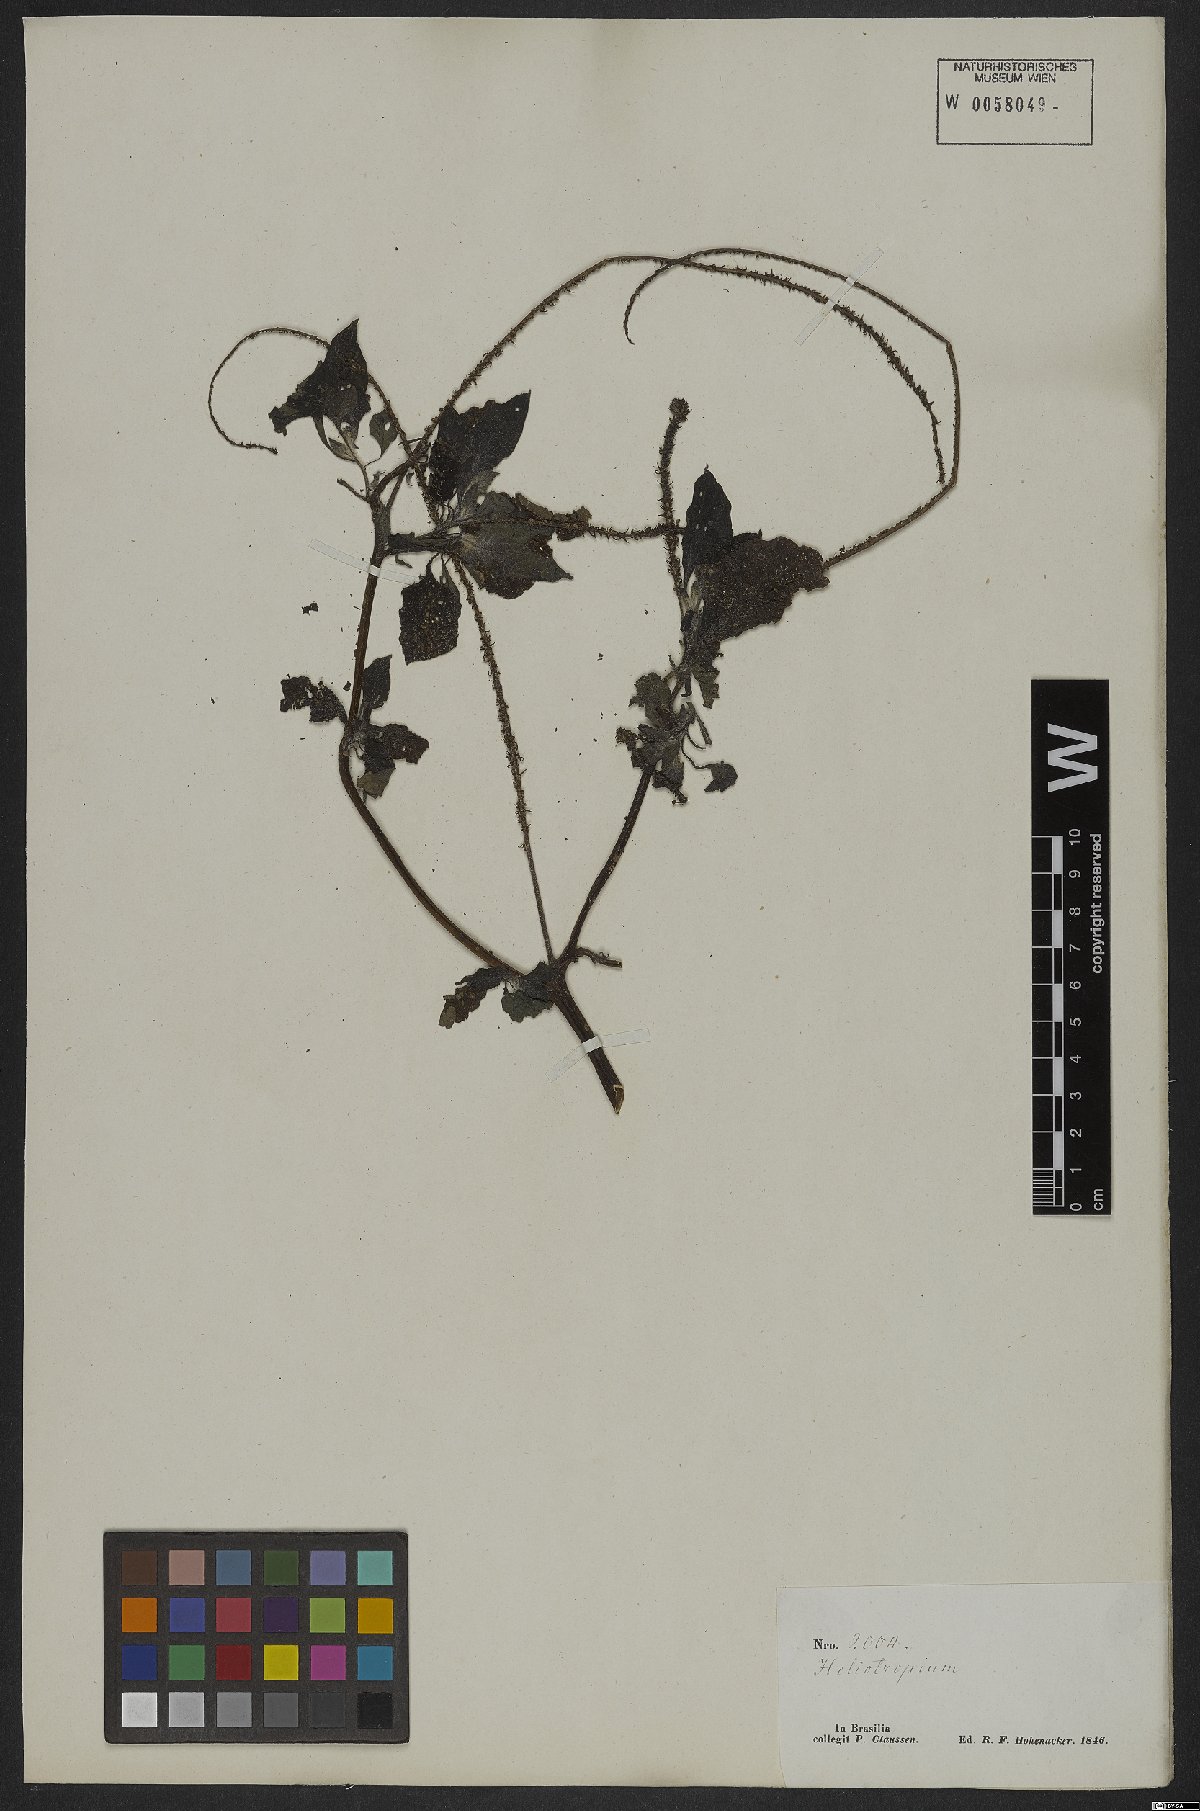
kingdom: Plantae
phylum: Tracheophyta
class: Magnoliopsida
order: Boraginales
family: Heliotropiaceae
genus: Heliotropium
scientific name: Heliotropium indicum
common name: Indian heliotrope
